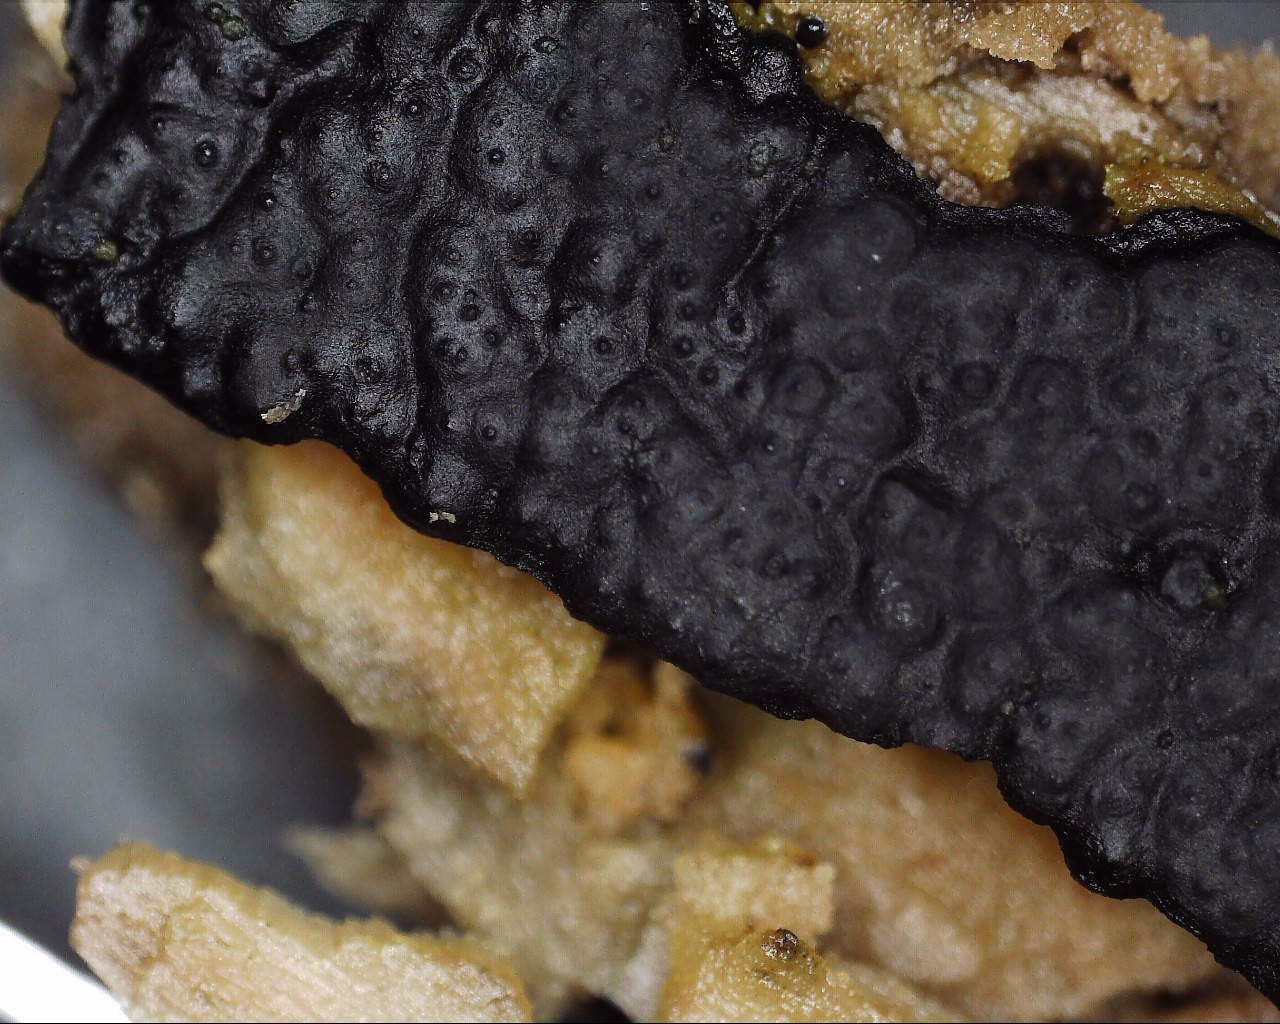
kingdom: Fungi
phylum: Ascomycota
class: Sordariomycetes
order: Xylariales
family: Xylariaceae
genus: Nemania
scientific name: Nemania serpens
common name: almindelig kuldyne
